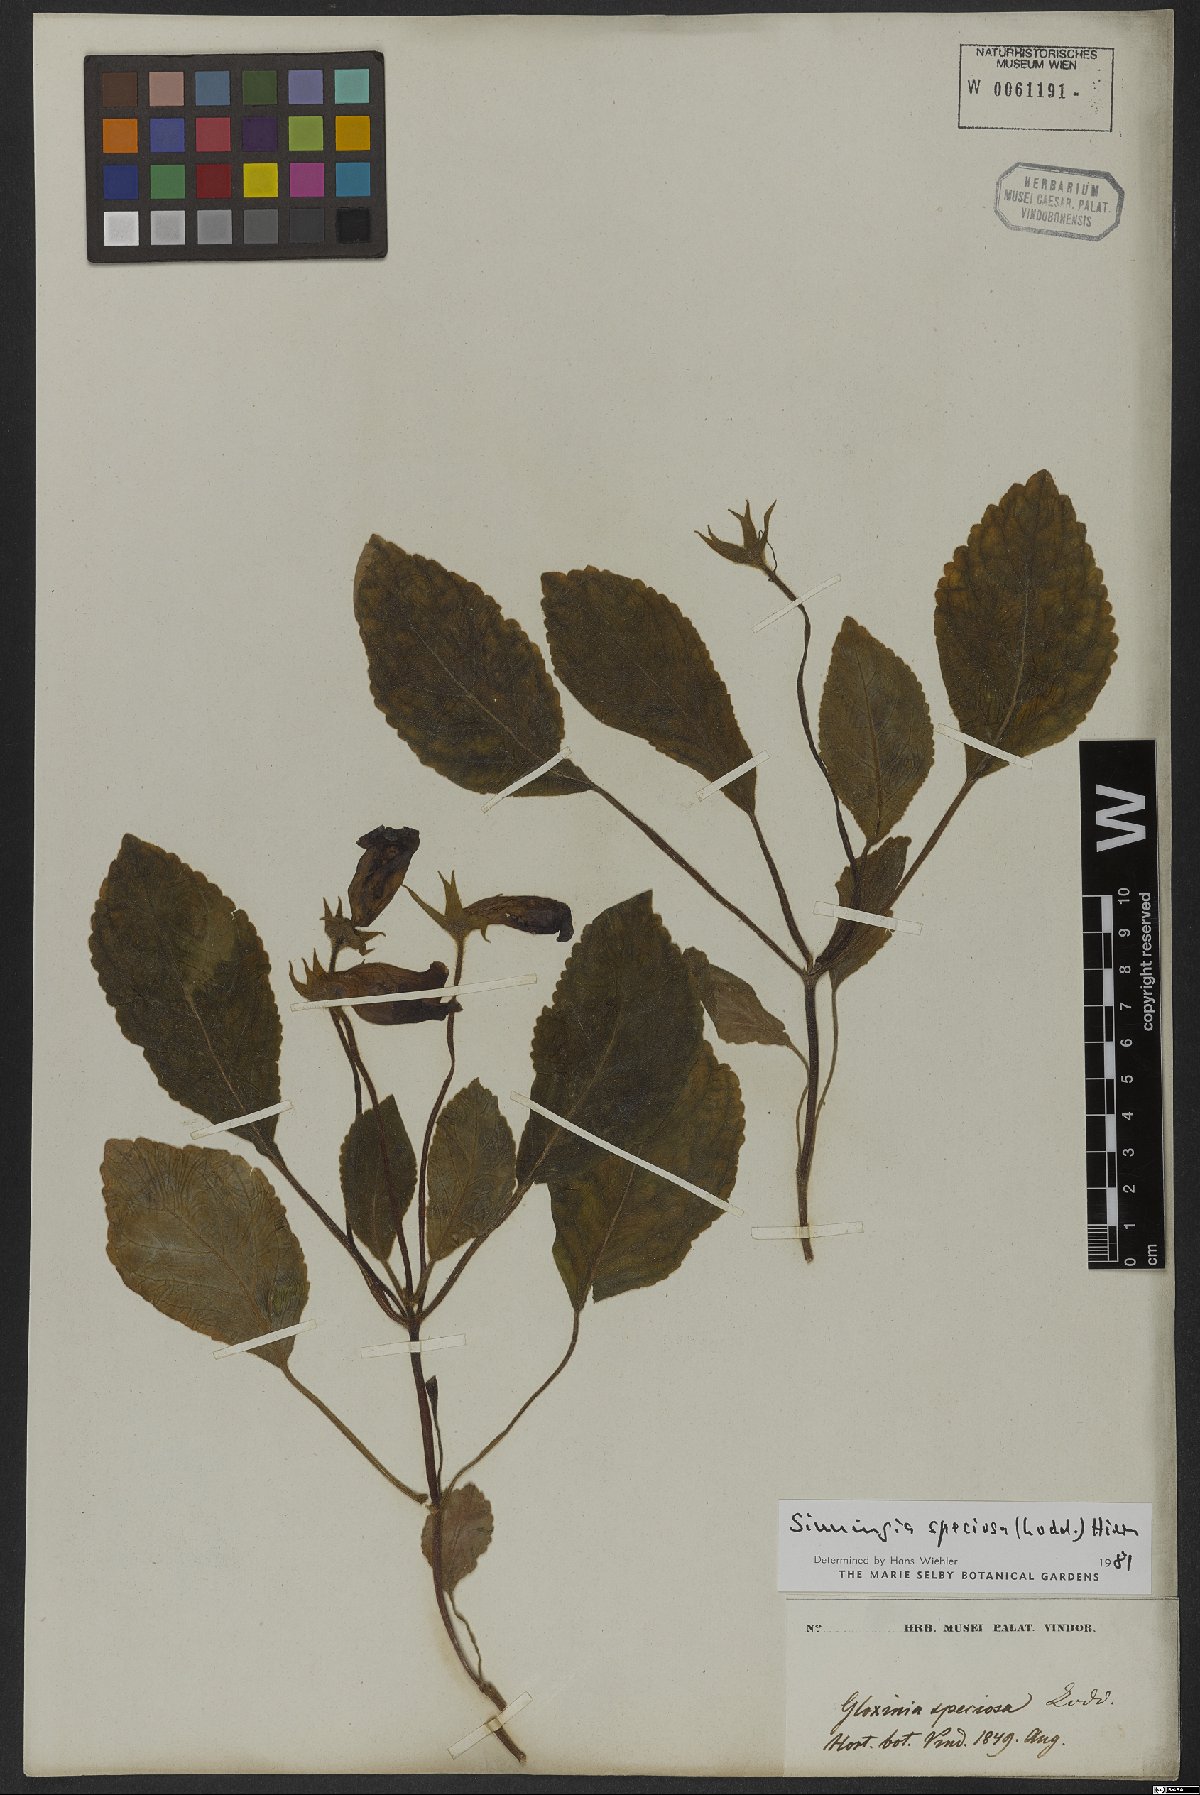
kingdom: Plantae
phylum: Tracheophyta
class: Magnoliopsida
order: Lamiales
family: Gesneriaceae
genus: Sinningia
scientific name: Sinningia speciosa
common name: Brazilian gloxinia
